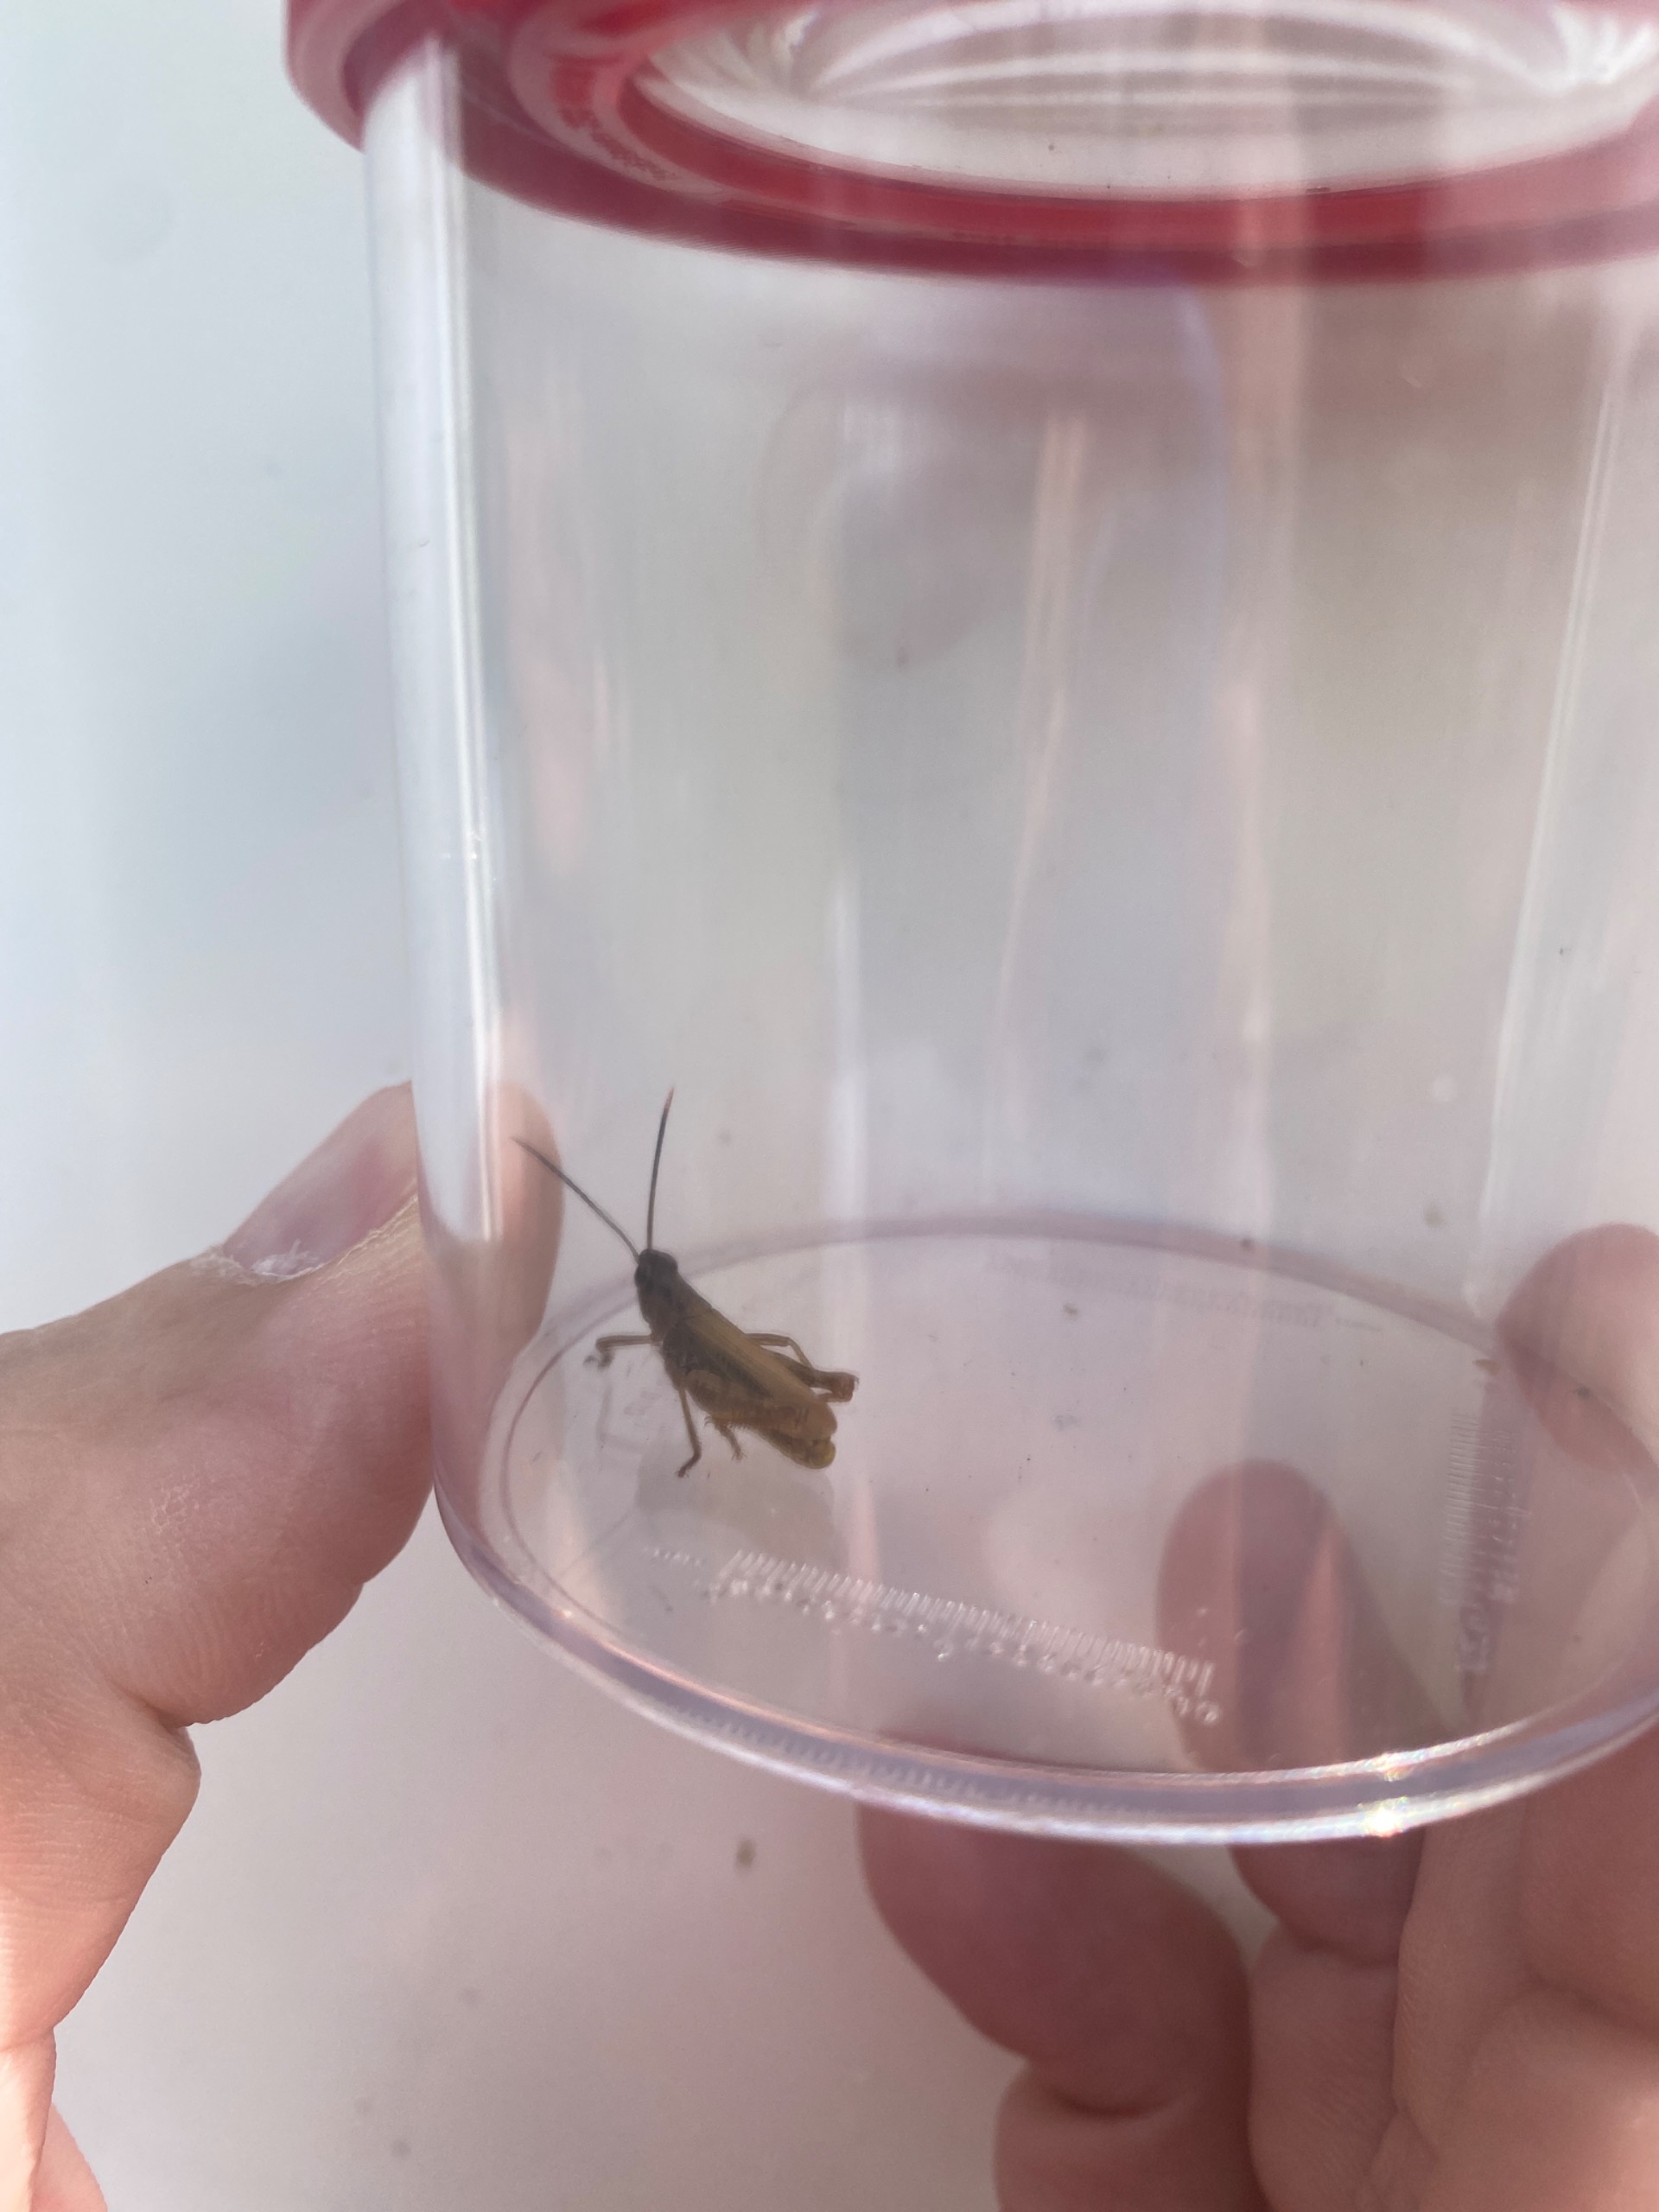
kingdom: Animalia
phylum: Arthropoda
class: Insecta
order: Orthoptera
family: Acrididae
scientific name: Acrididae
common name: Markgræshopper
